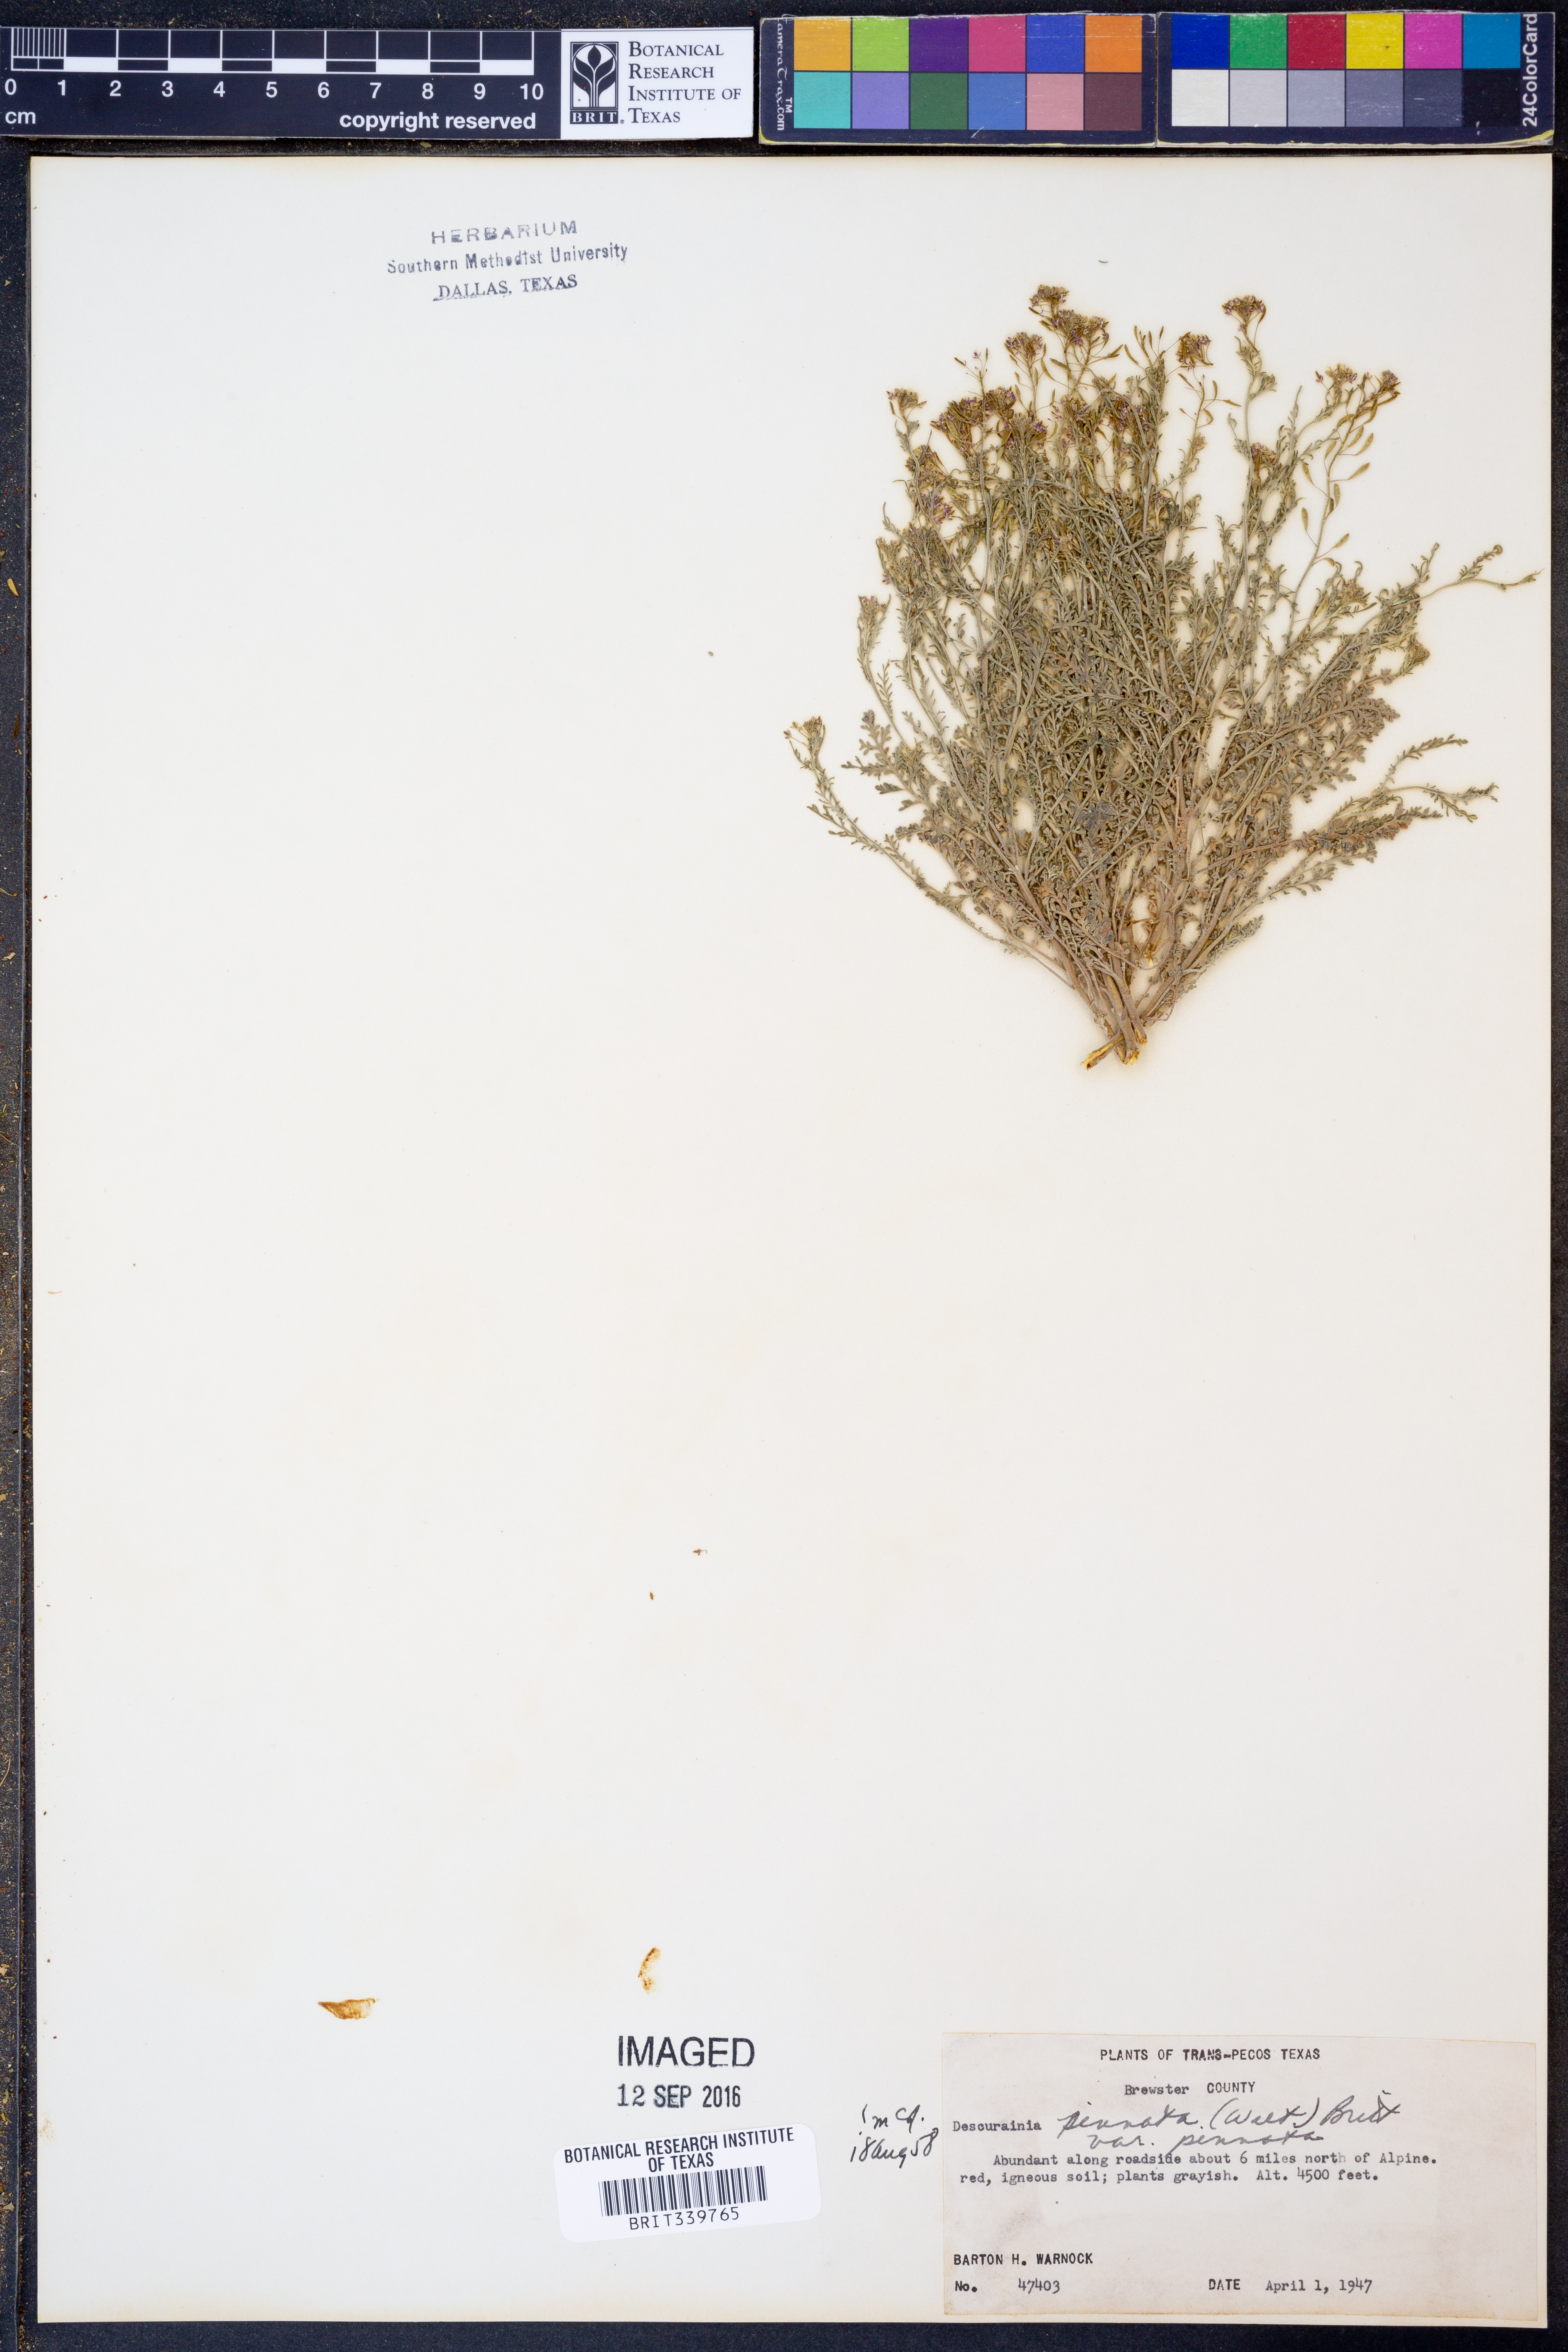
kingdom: Plantae
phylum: Tracheophyta
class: Magnoliopsida
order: Brassicales
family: Brassicaceae
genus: Descurainia
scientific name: Descurainia pinnata
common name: Western tansy mustard
